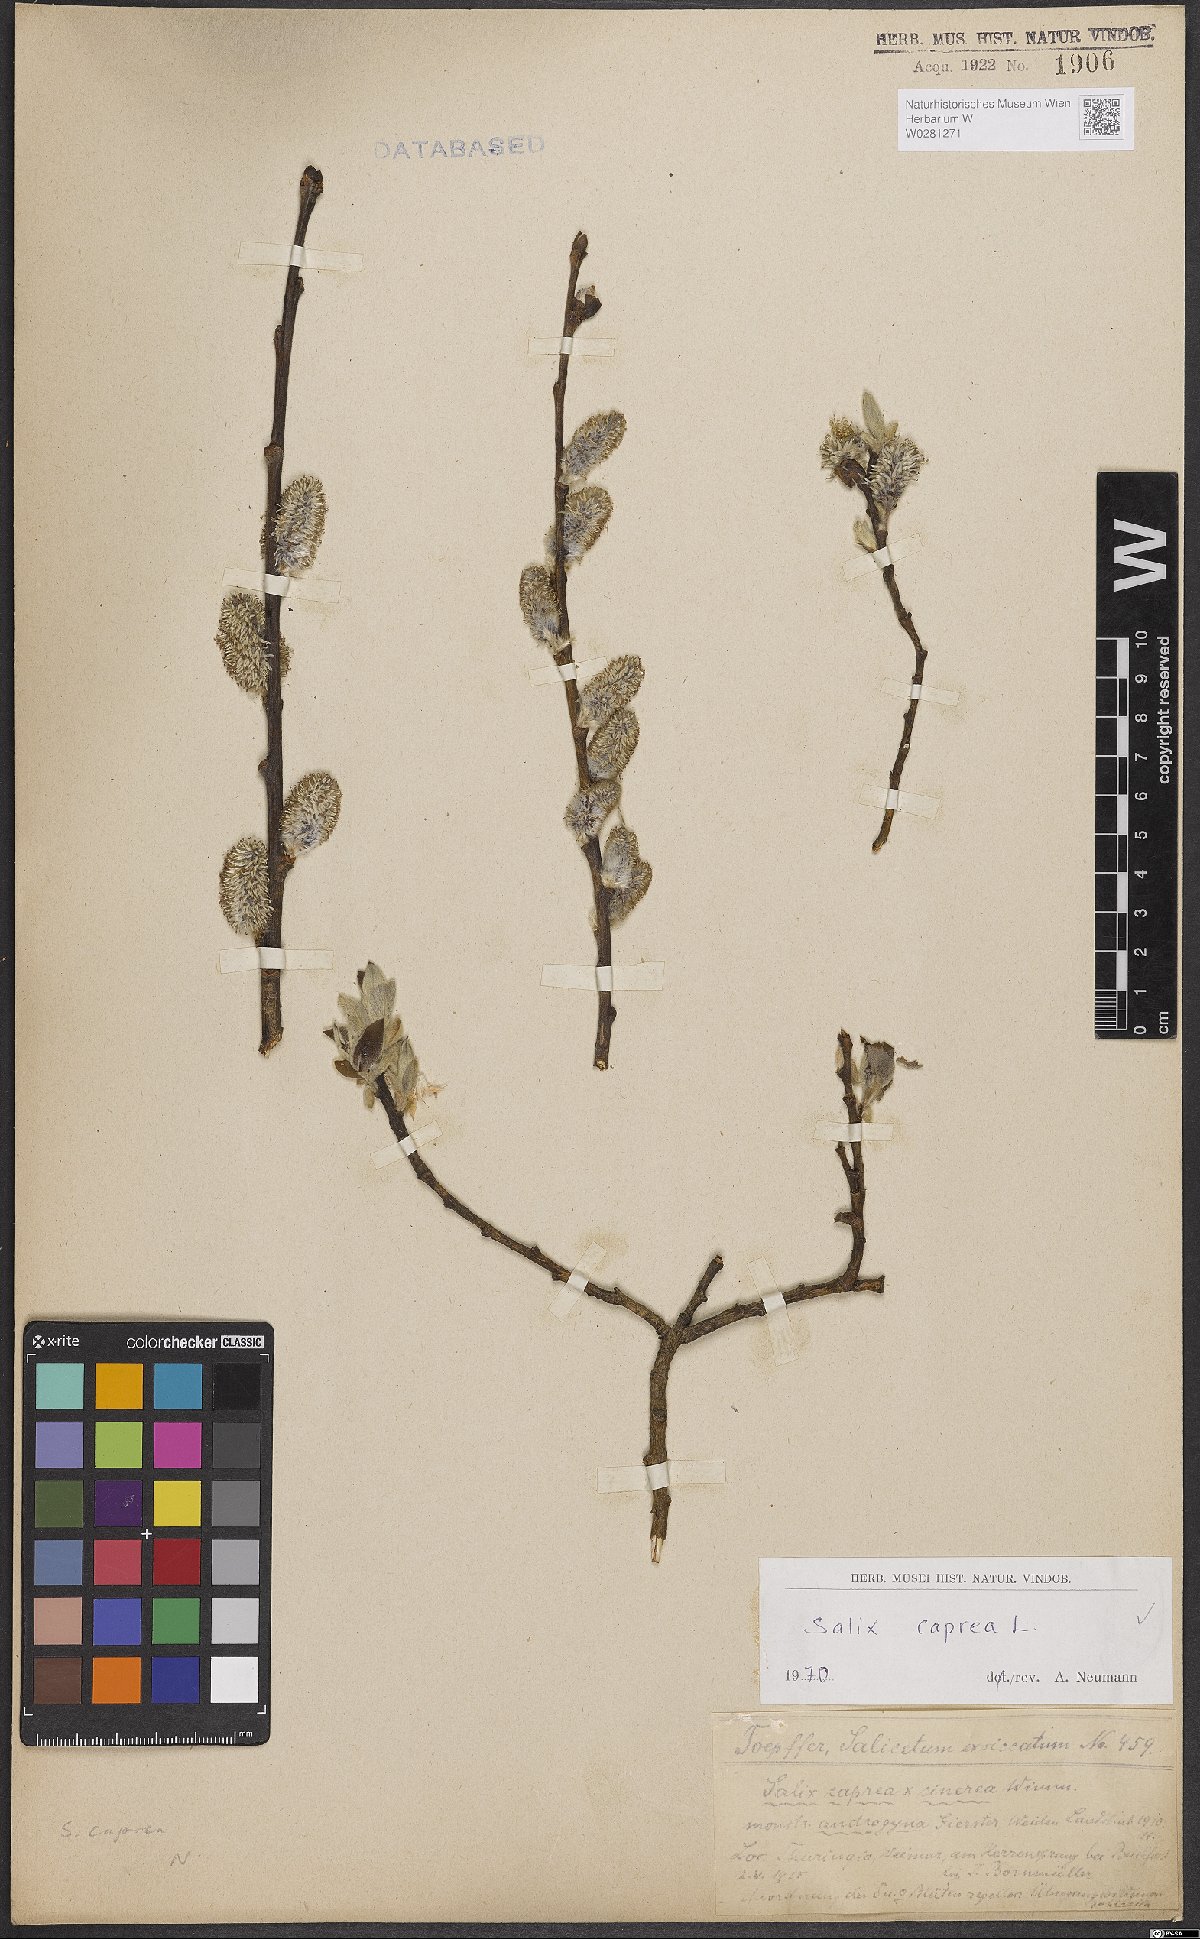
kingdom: Plantae
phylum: Tracheophyta
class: Magnoliopsida
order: Malpighiales
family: Salicaceae
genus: Salix
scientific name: Salix caprea
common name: Goat willow
